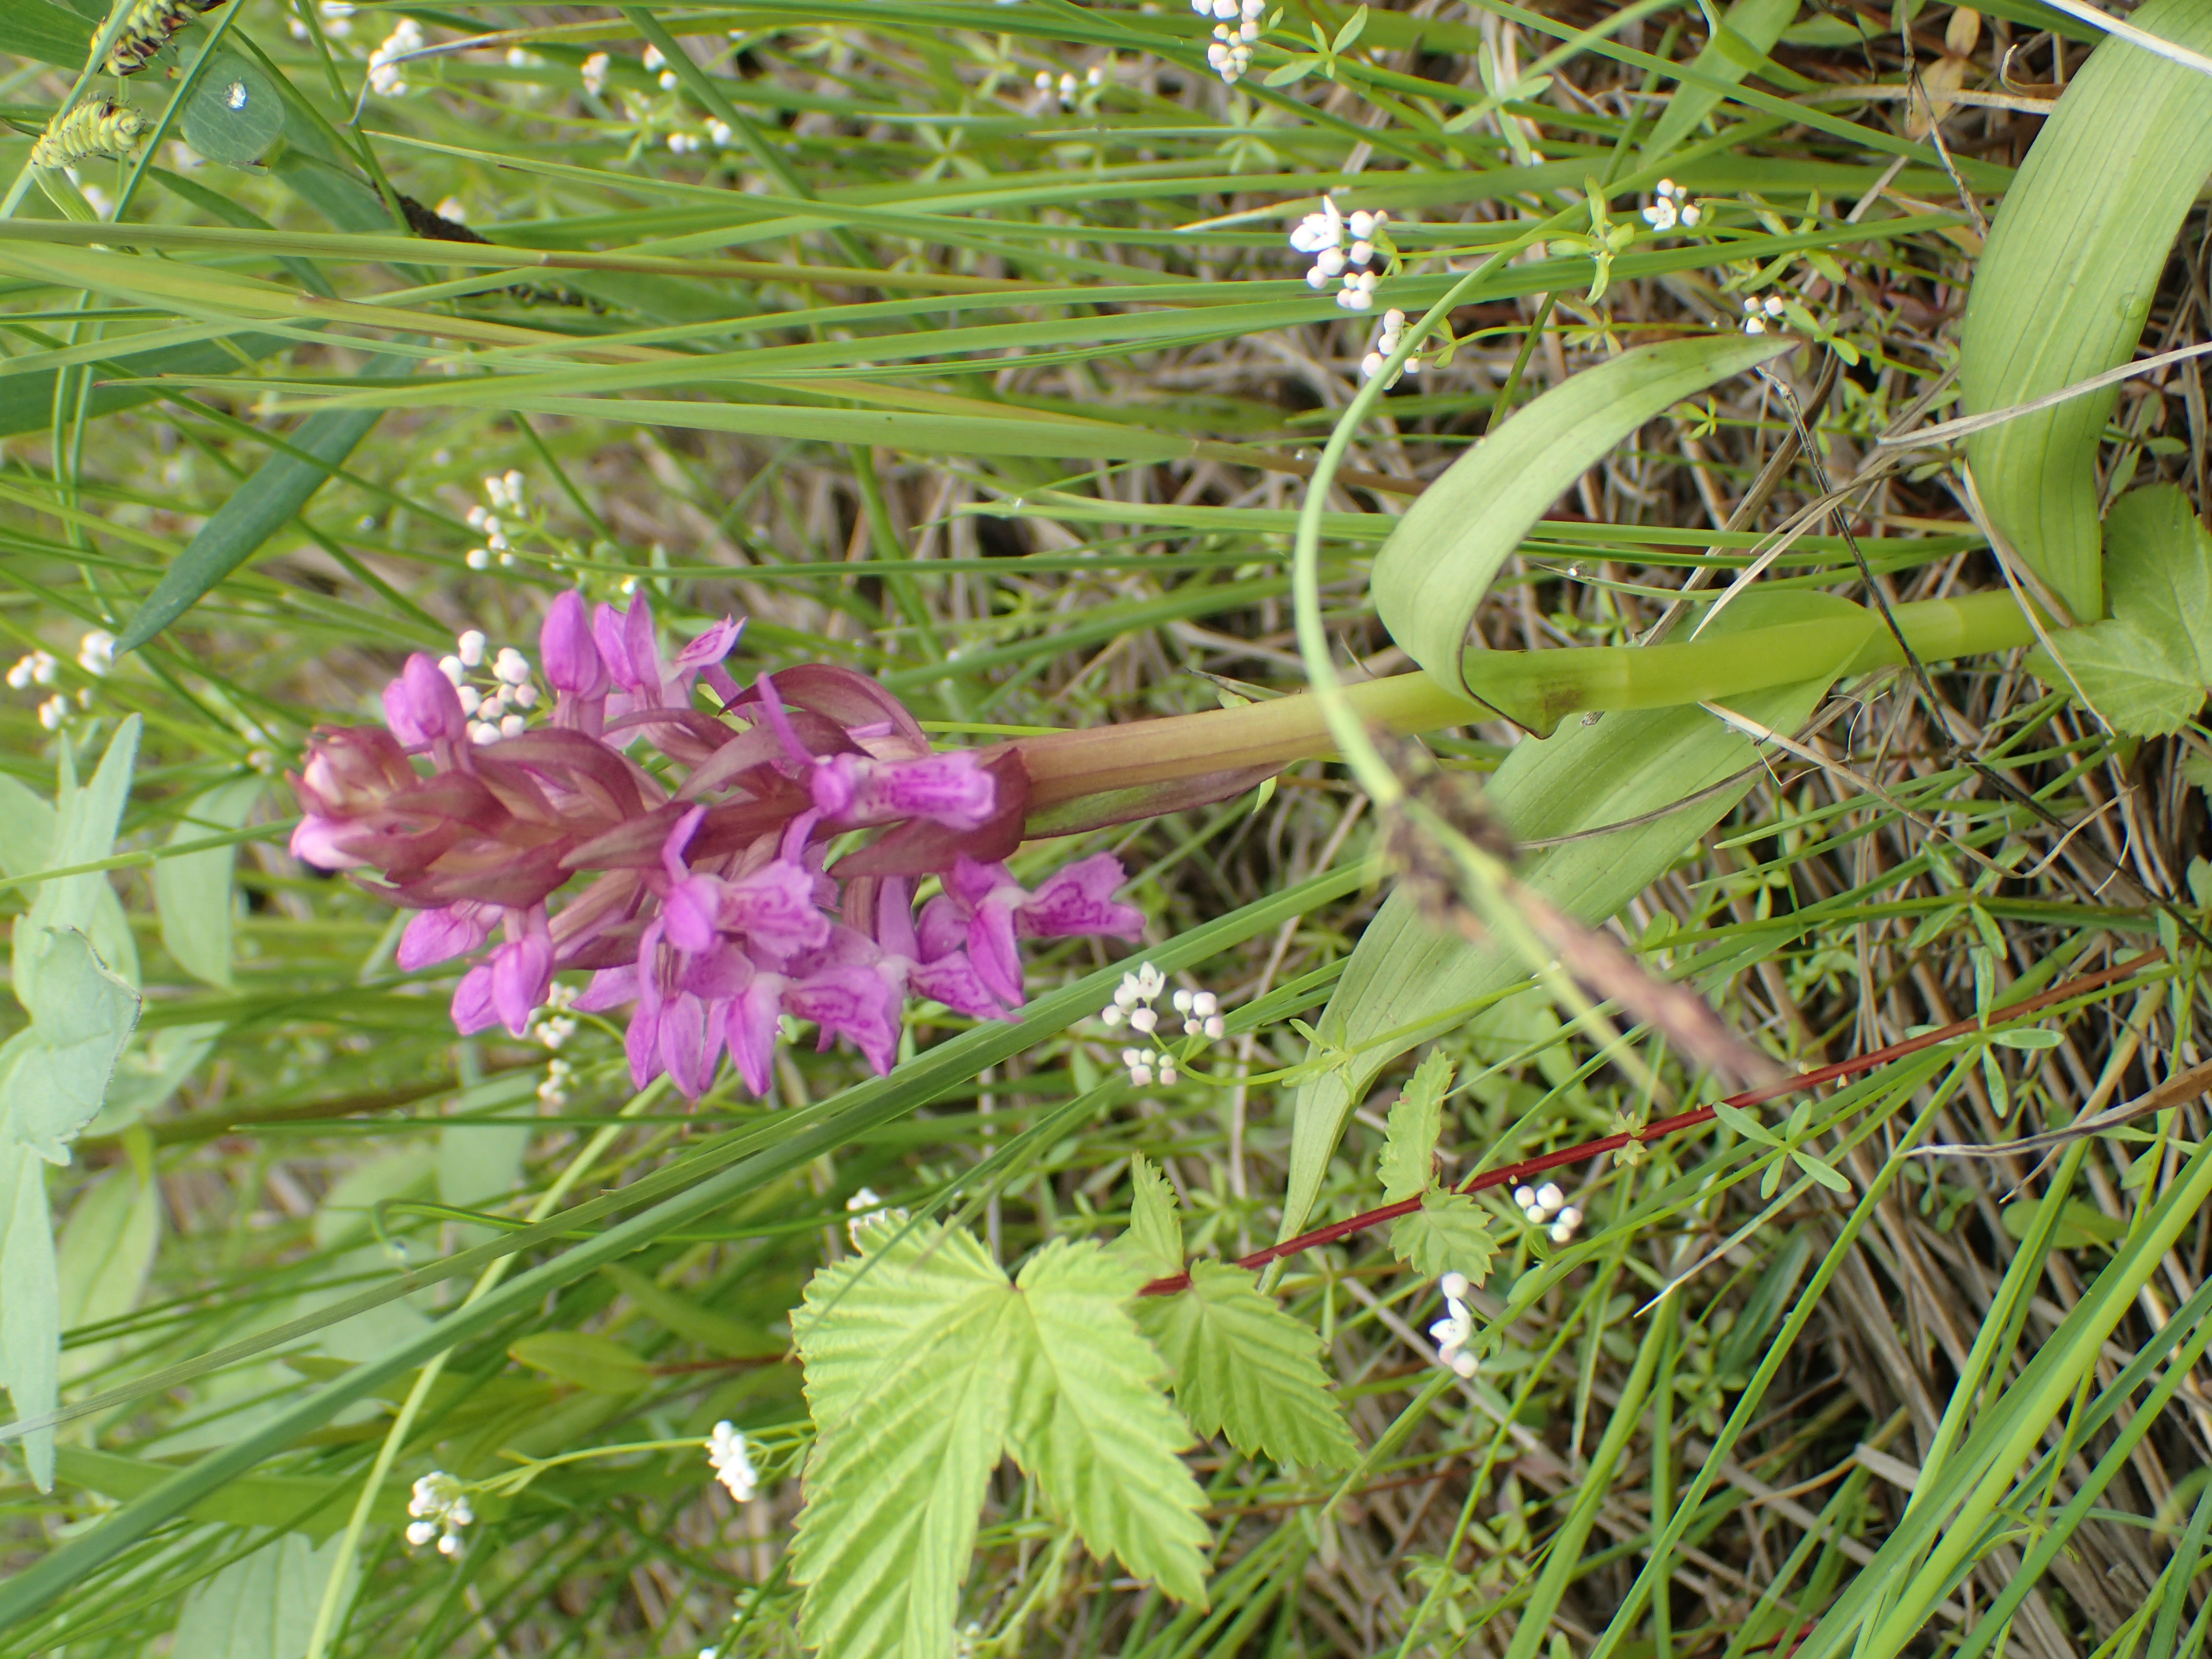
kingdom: Plantae
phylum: Tracheophyta
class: Liliopsida
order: Asparagales
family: Orchidaceae
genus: Dactylorhiza
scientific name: Dactylorhiza incarnata
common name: Early marsh-orchid
